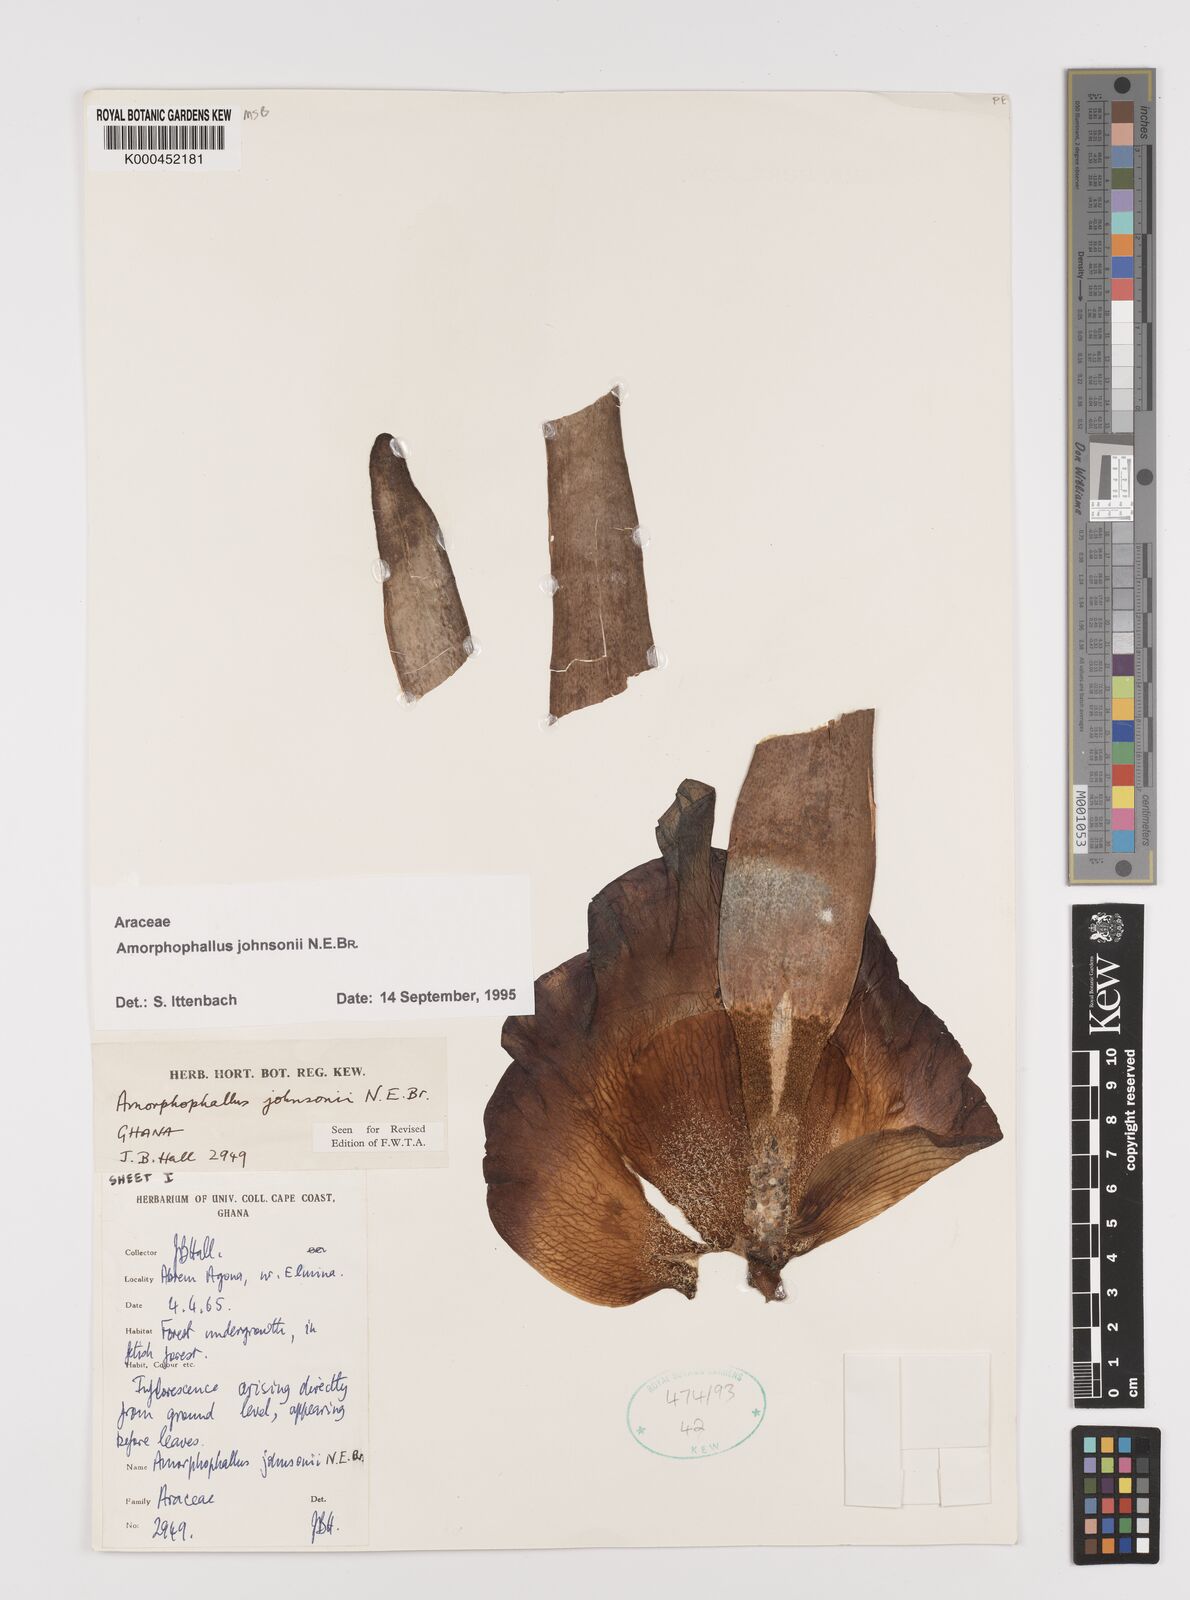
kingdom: Plantae
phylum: Tracheophyta
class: Liliopsida
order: Alismatales
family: Araceae
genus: Amorphophallus
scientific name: Amorphophallus johnsonii
